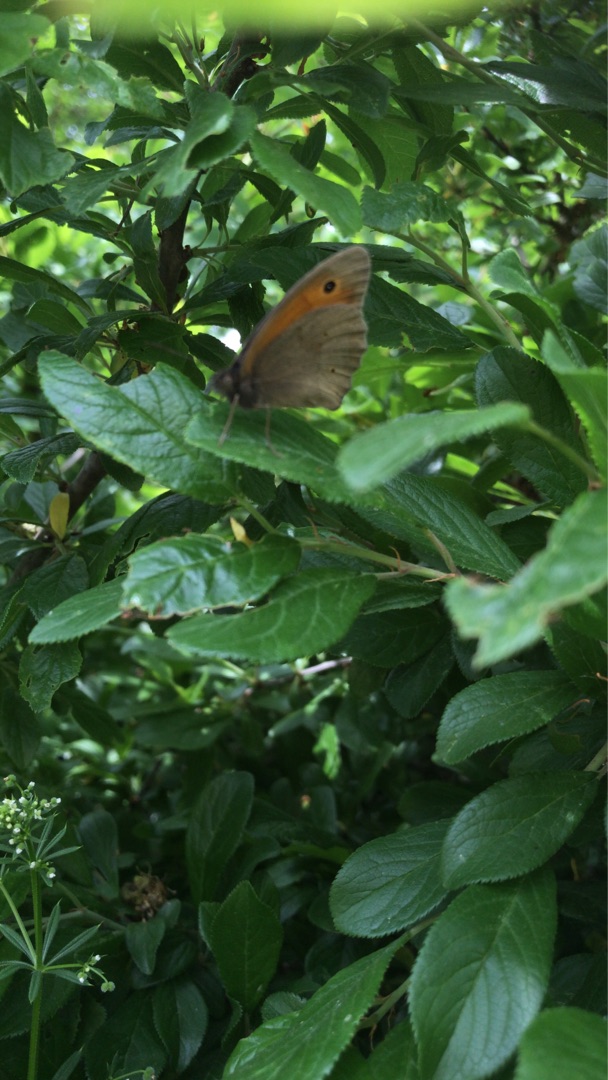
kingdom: Animalia
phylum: Arthropoda
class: Insecta
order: Lepidoptera
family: Nymphalidae
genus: Maniola
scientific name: Maniola jurtina
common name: Græsrandøje
